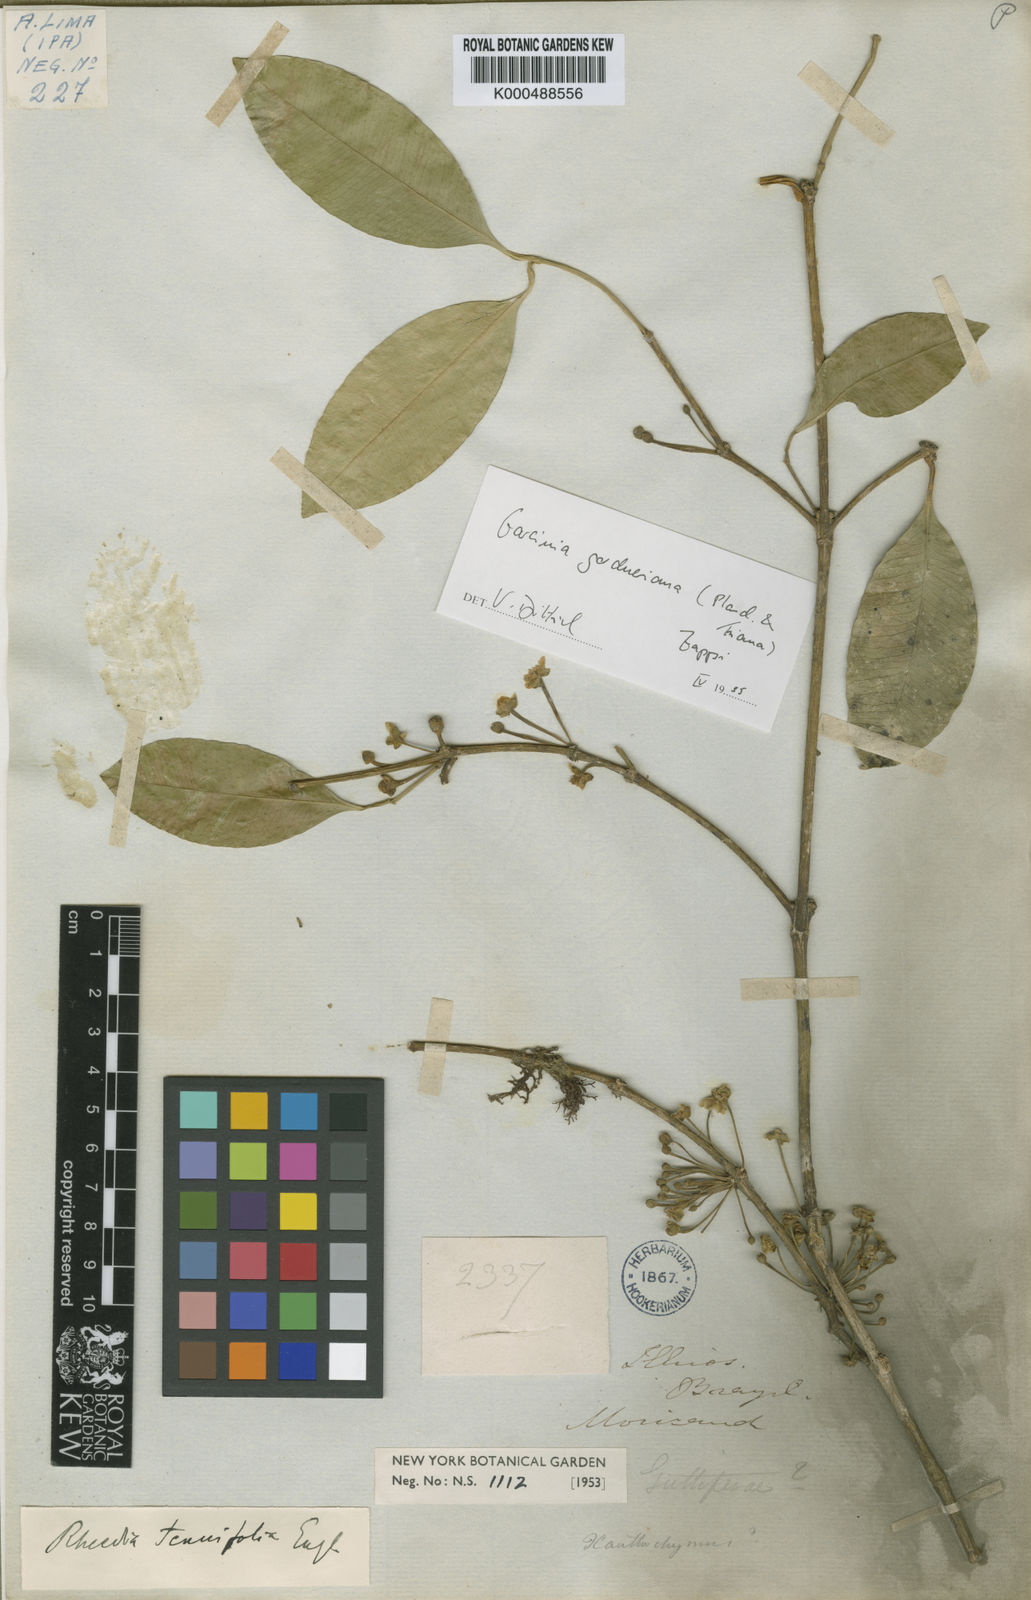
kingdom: Plantae
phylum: Tracheophyta
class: Magnoliopsida
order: Malpighiales
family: Clusiaceae
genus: Garcinia
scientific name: Garcinia dumosa
